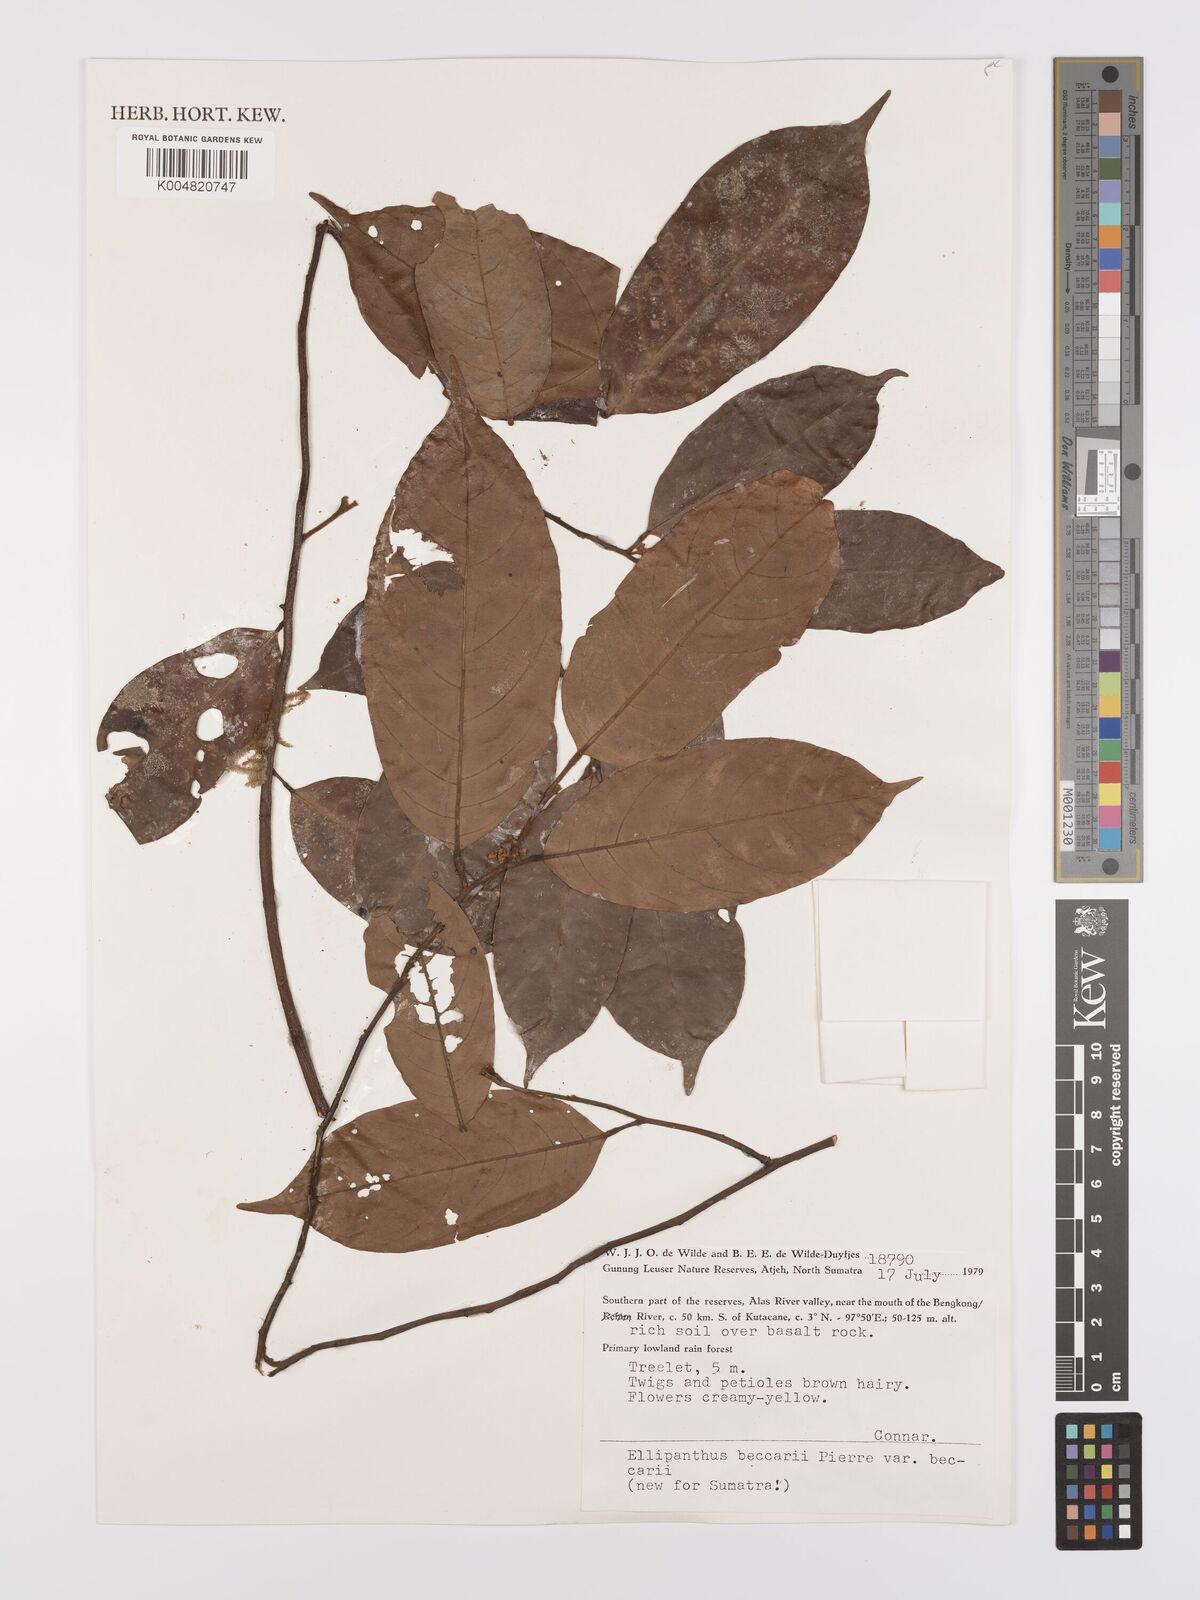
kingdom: Plantae
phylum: Tracheophyta
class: Magnoliopsida
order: Oxalidales
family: Connaraceae
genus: Ellipanthus
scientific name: Ellipanthus beccarii
